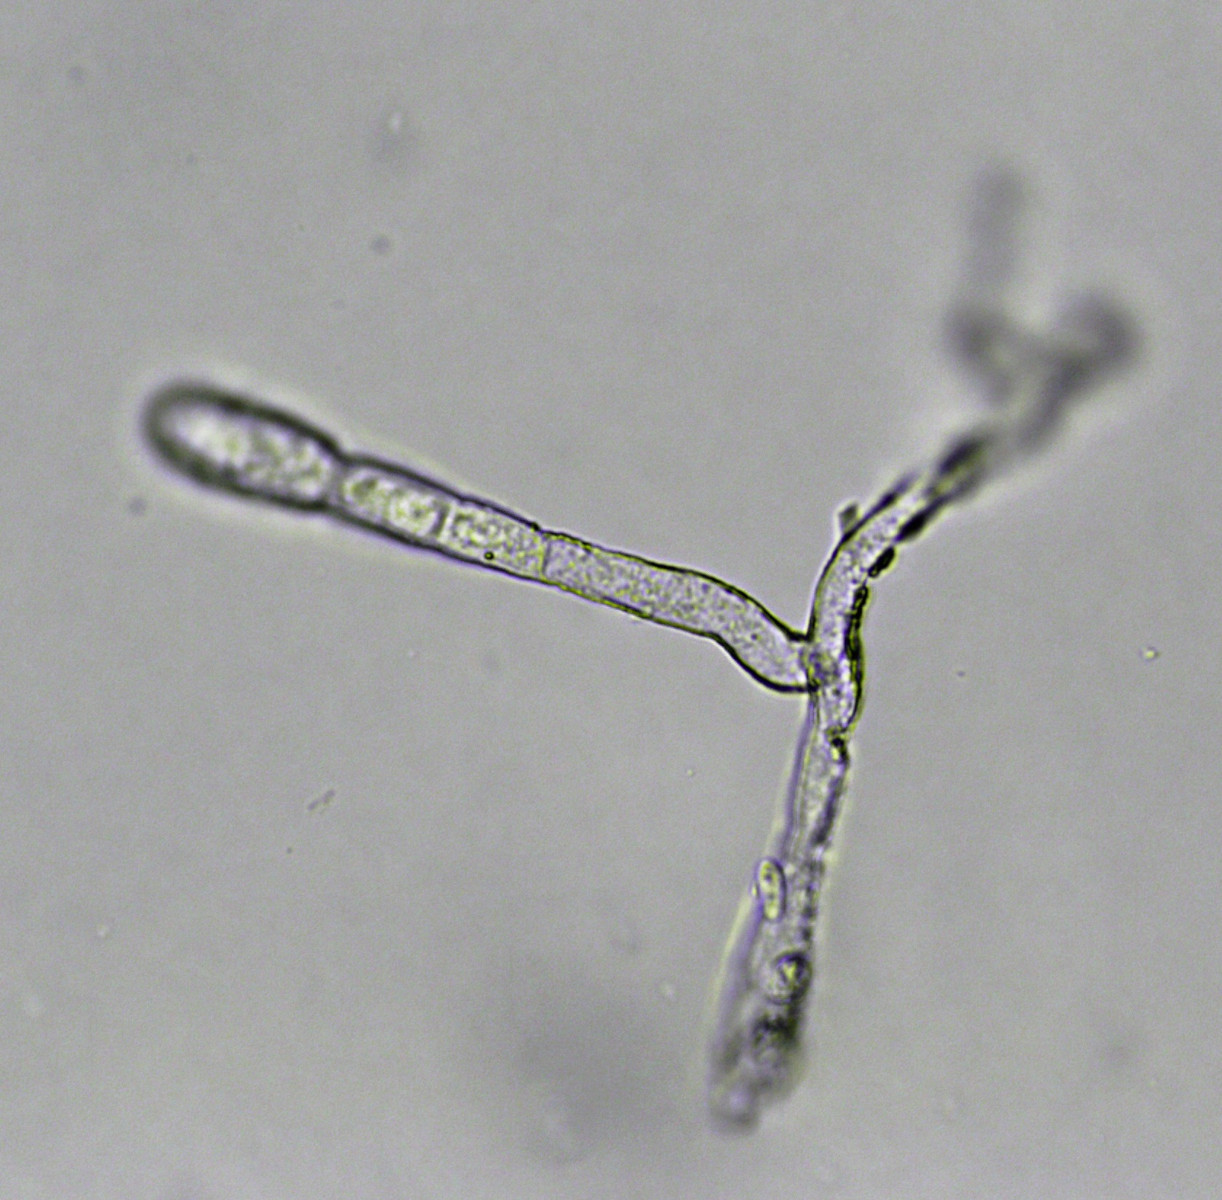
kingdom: Fungi
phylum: Ascomycota
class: Leotiomycetes
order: Helotiales
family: Erysiphaceae
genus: Erysiphe
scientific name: Erysiphe aquilegiae
